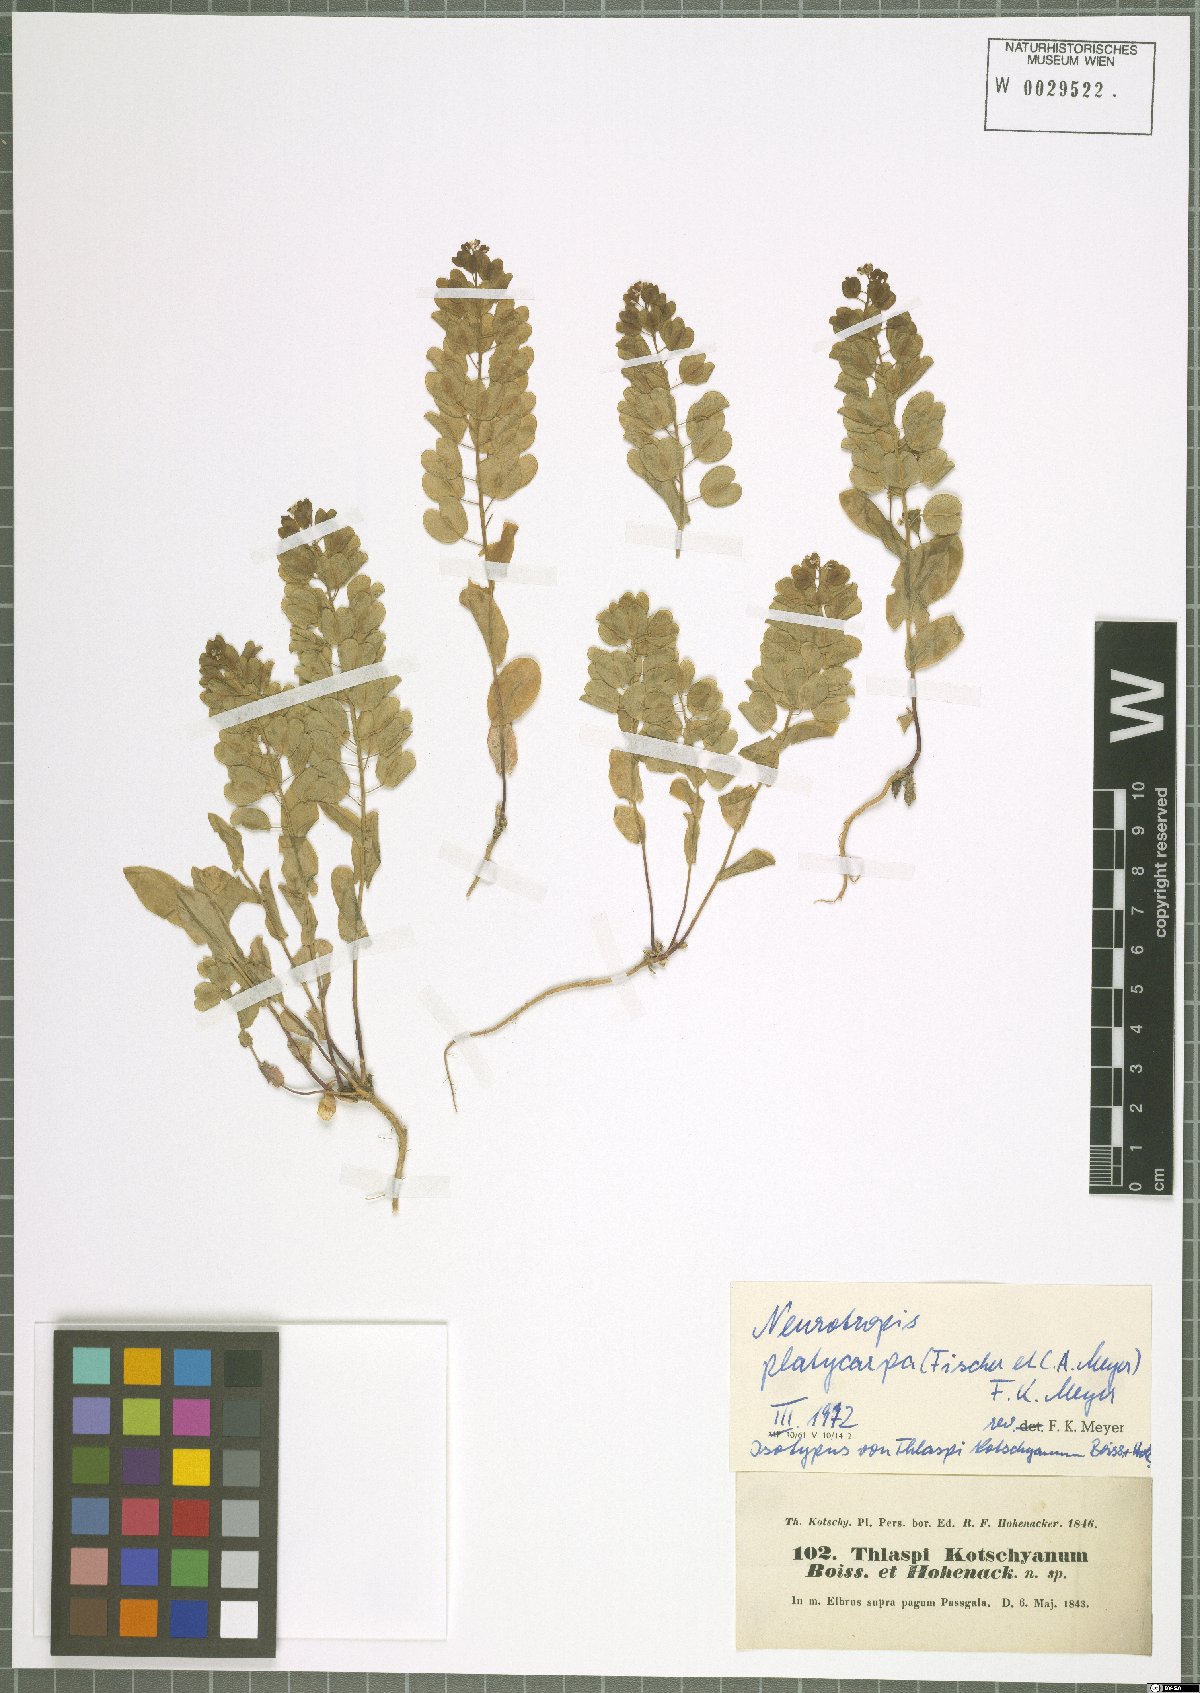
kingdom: Plantae
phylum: Tracheophyta
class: Magnoliopsida
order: Brassicales
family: Brassicaceae
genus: Noccaea
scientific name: Noccaea platycarpa
